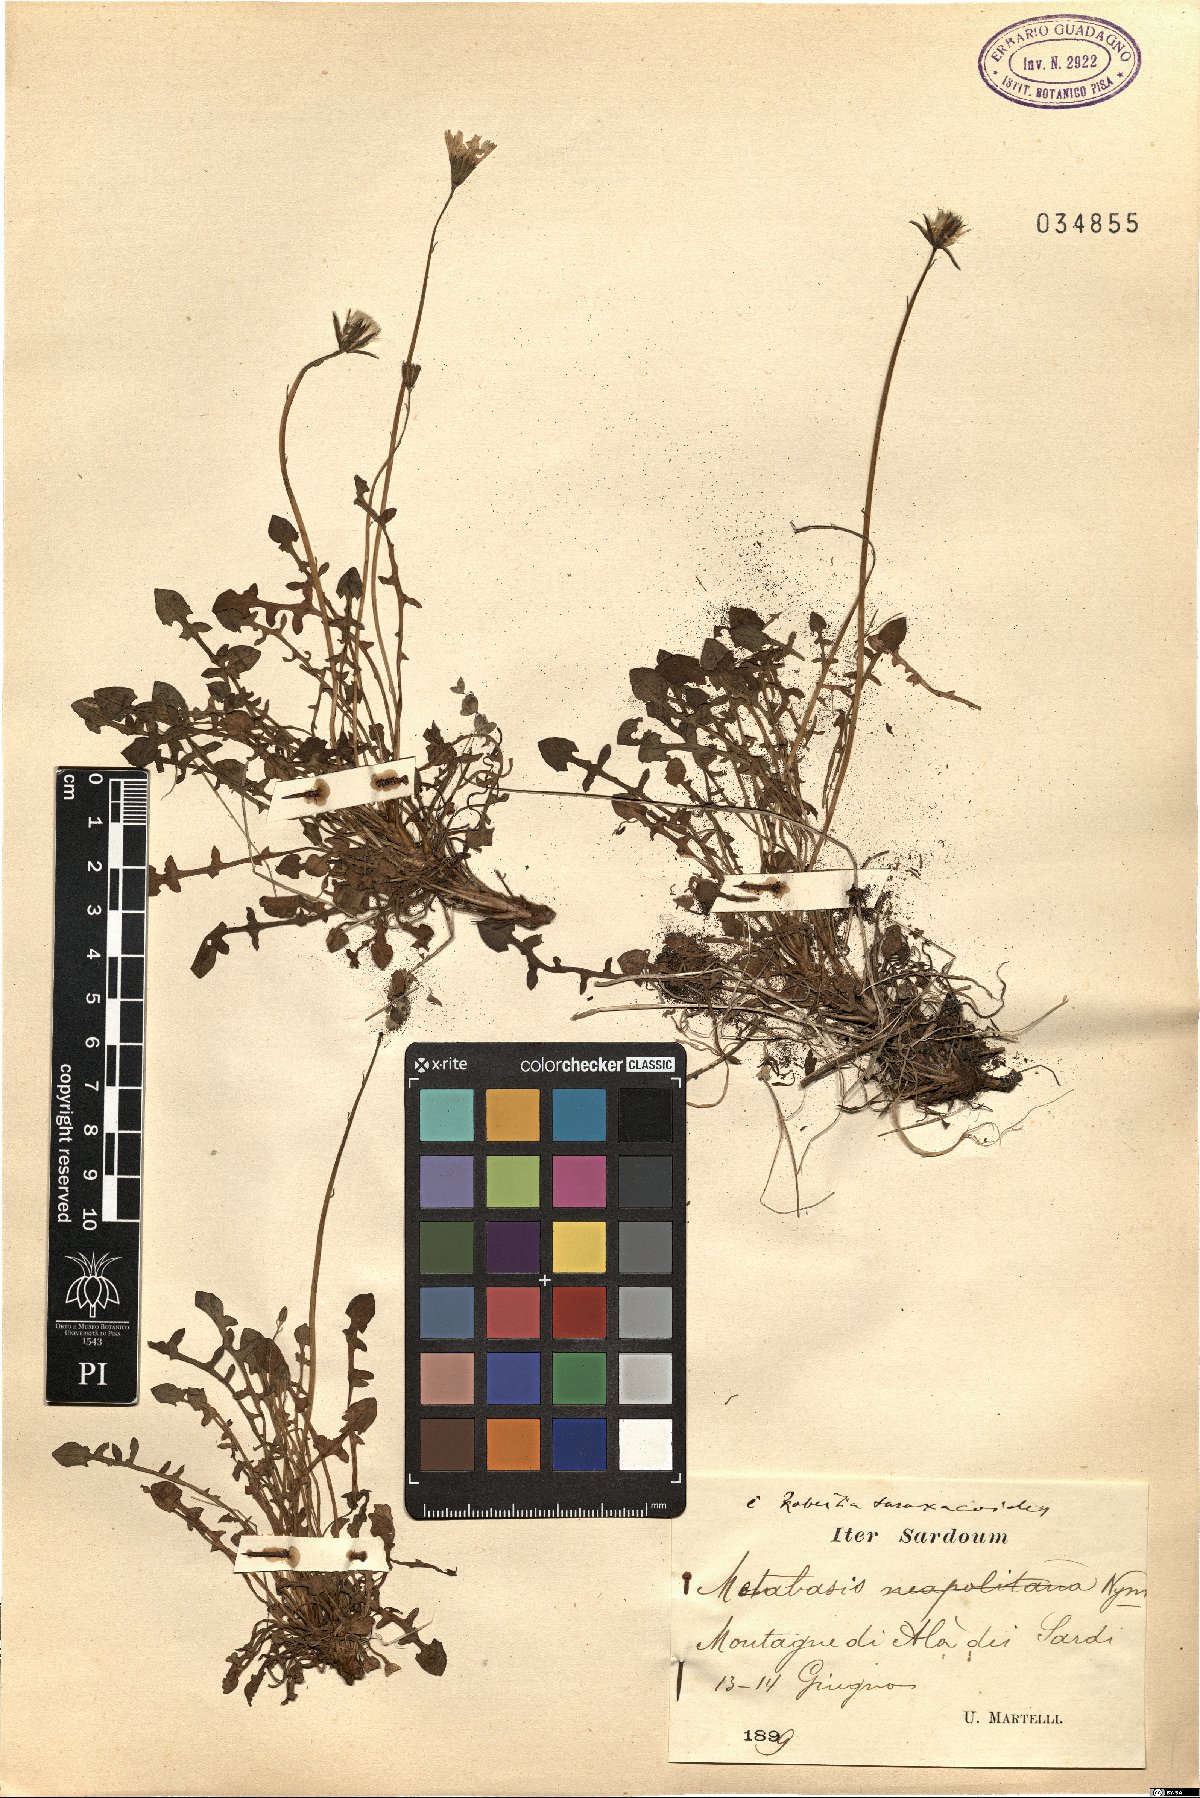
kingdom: Plantae
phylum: Tracheophyta
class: Magnoliopsida
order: Asterales
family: Asteraceae
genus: Hypochaeris
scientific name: Hypochaeris robertia
